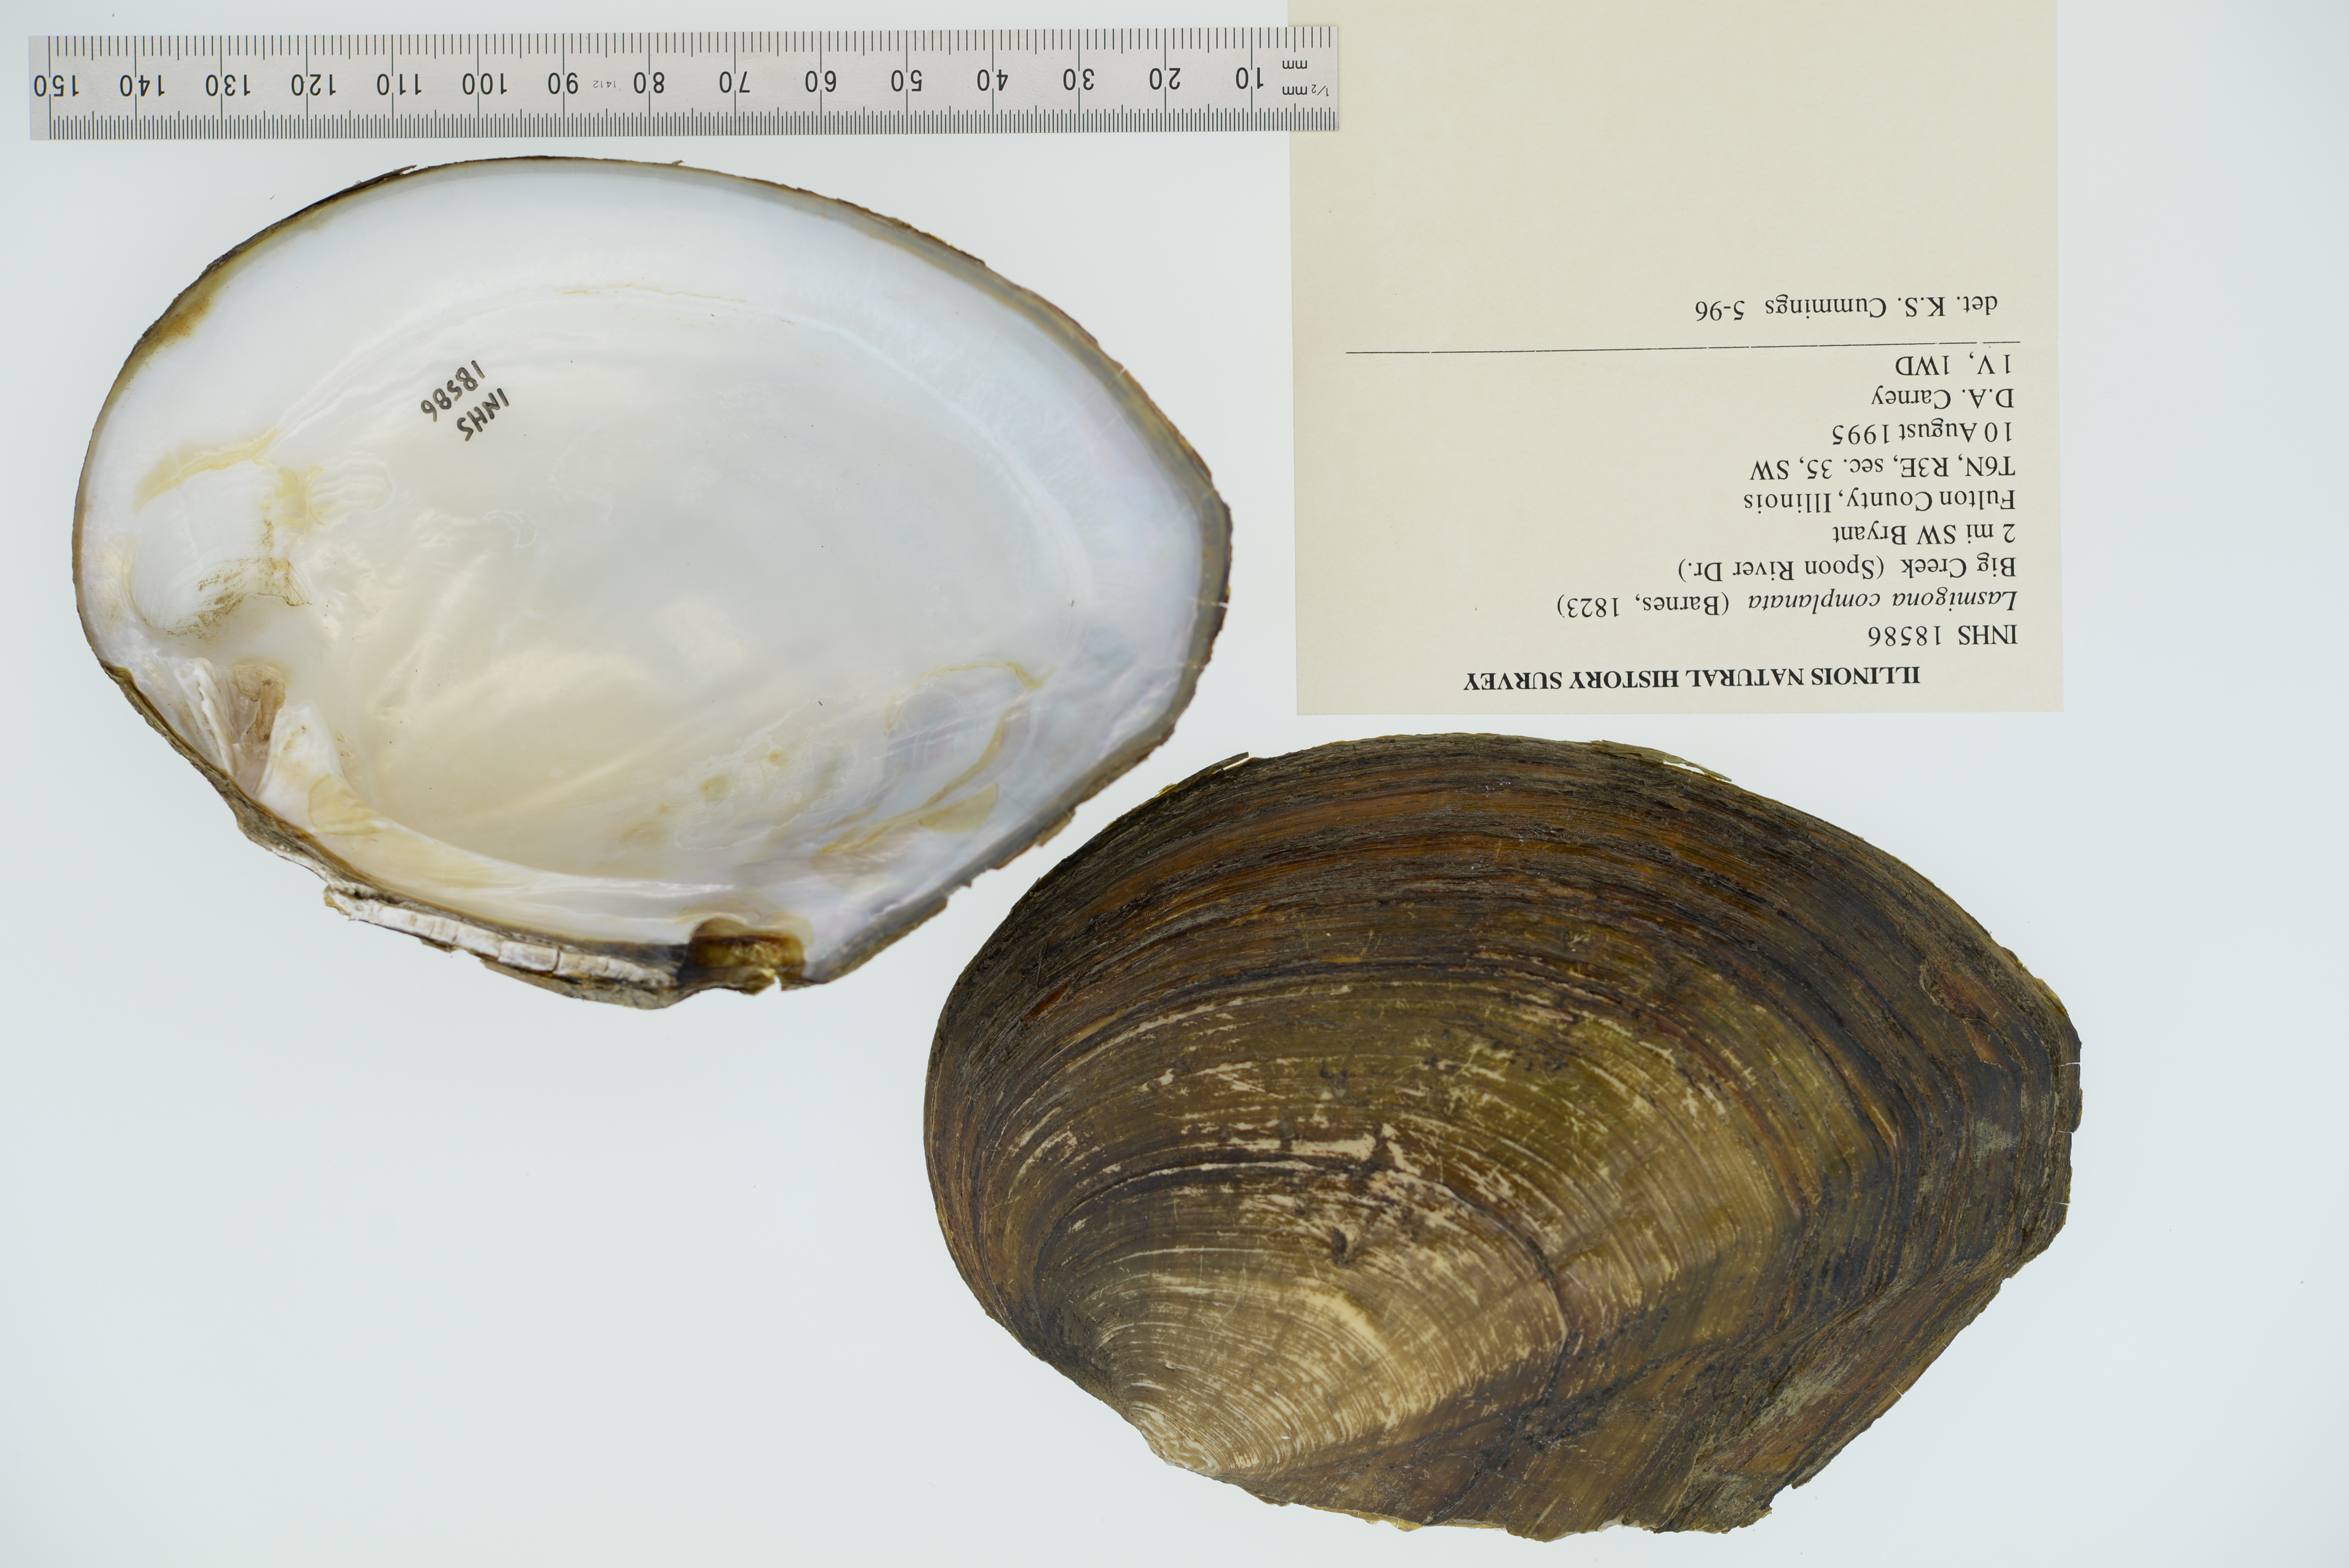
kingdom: Animalia
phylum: Mollusca
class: Bivalvia
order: Unionida
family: Unionidae
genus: Lasmigona
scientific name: Lasmigona complanata
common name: White heelsplitter
